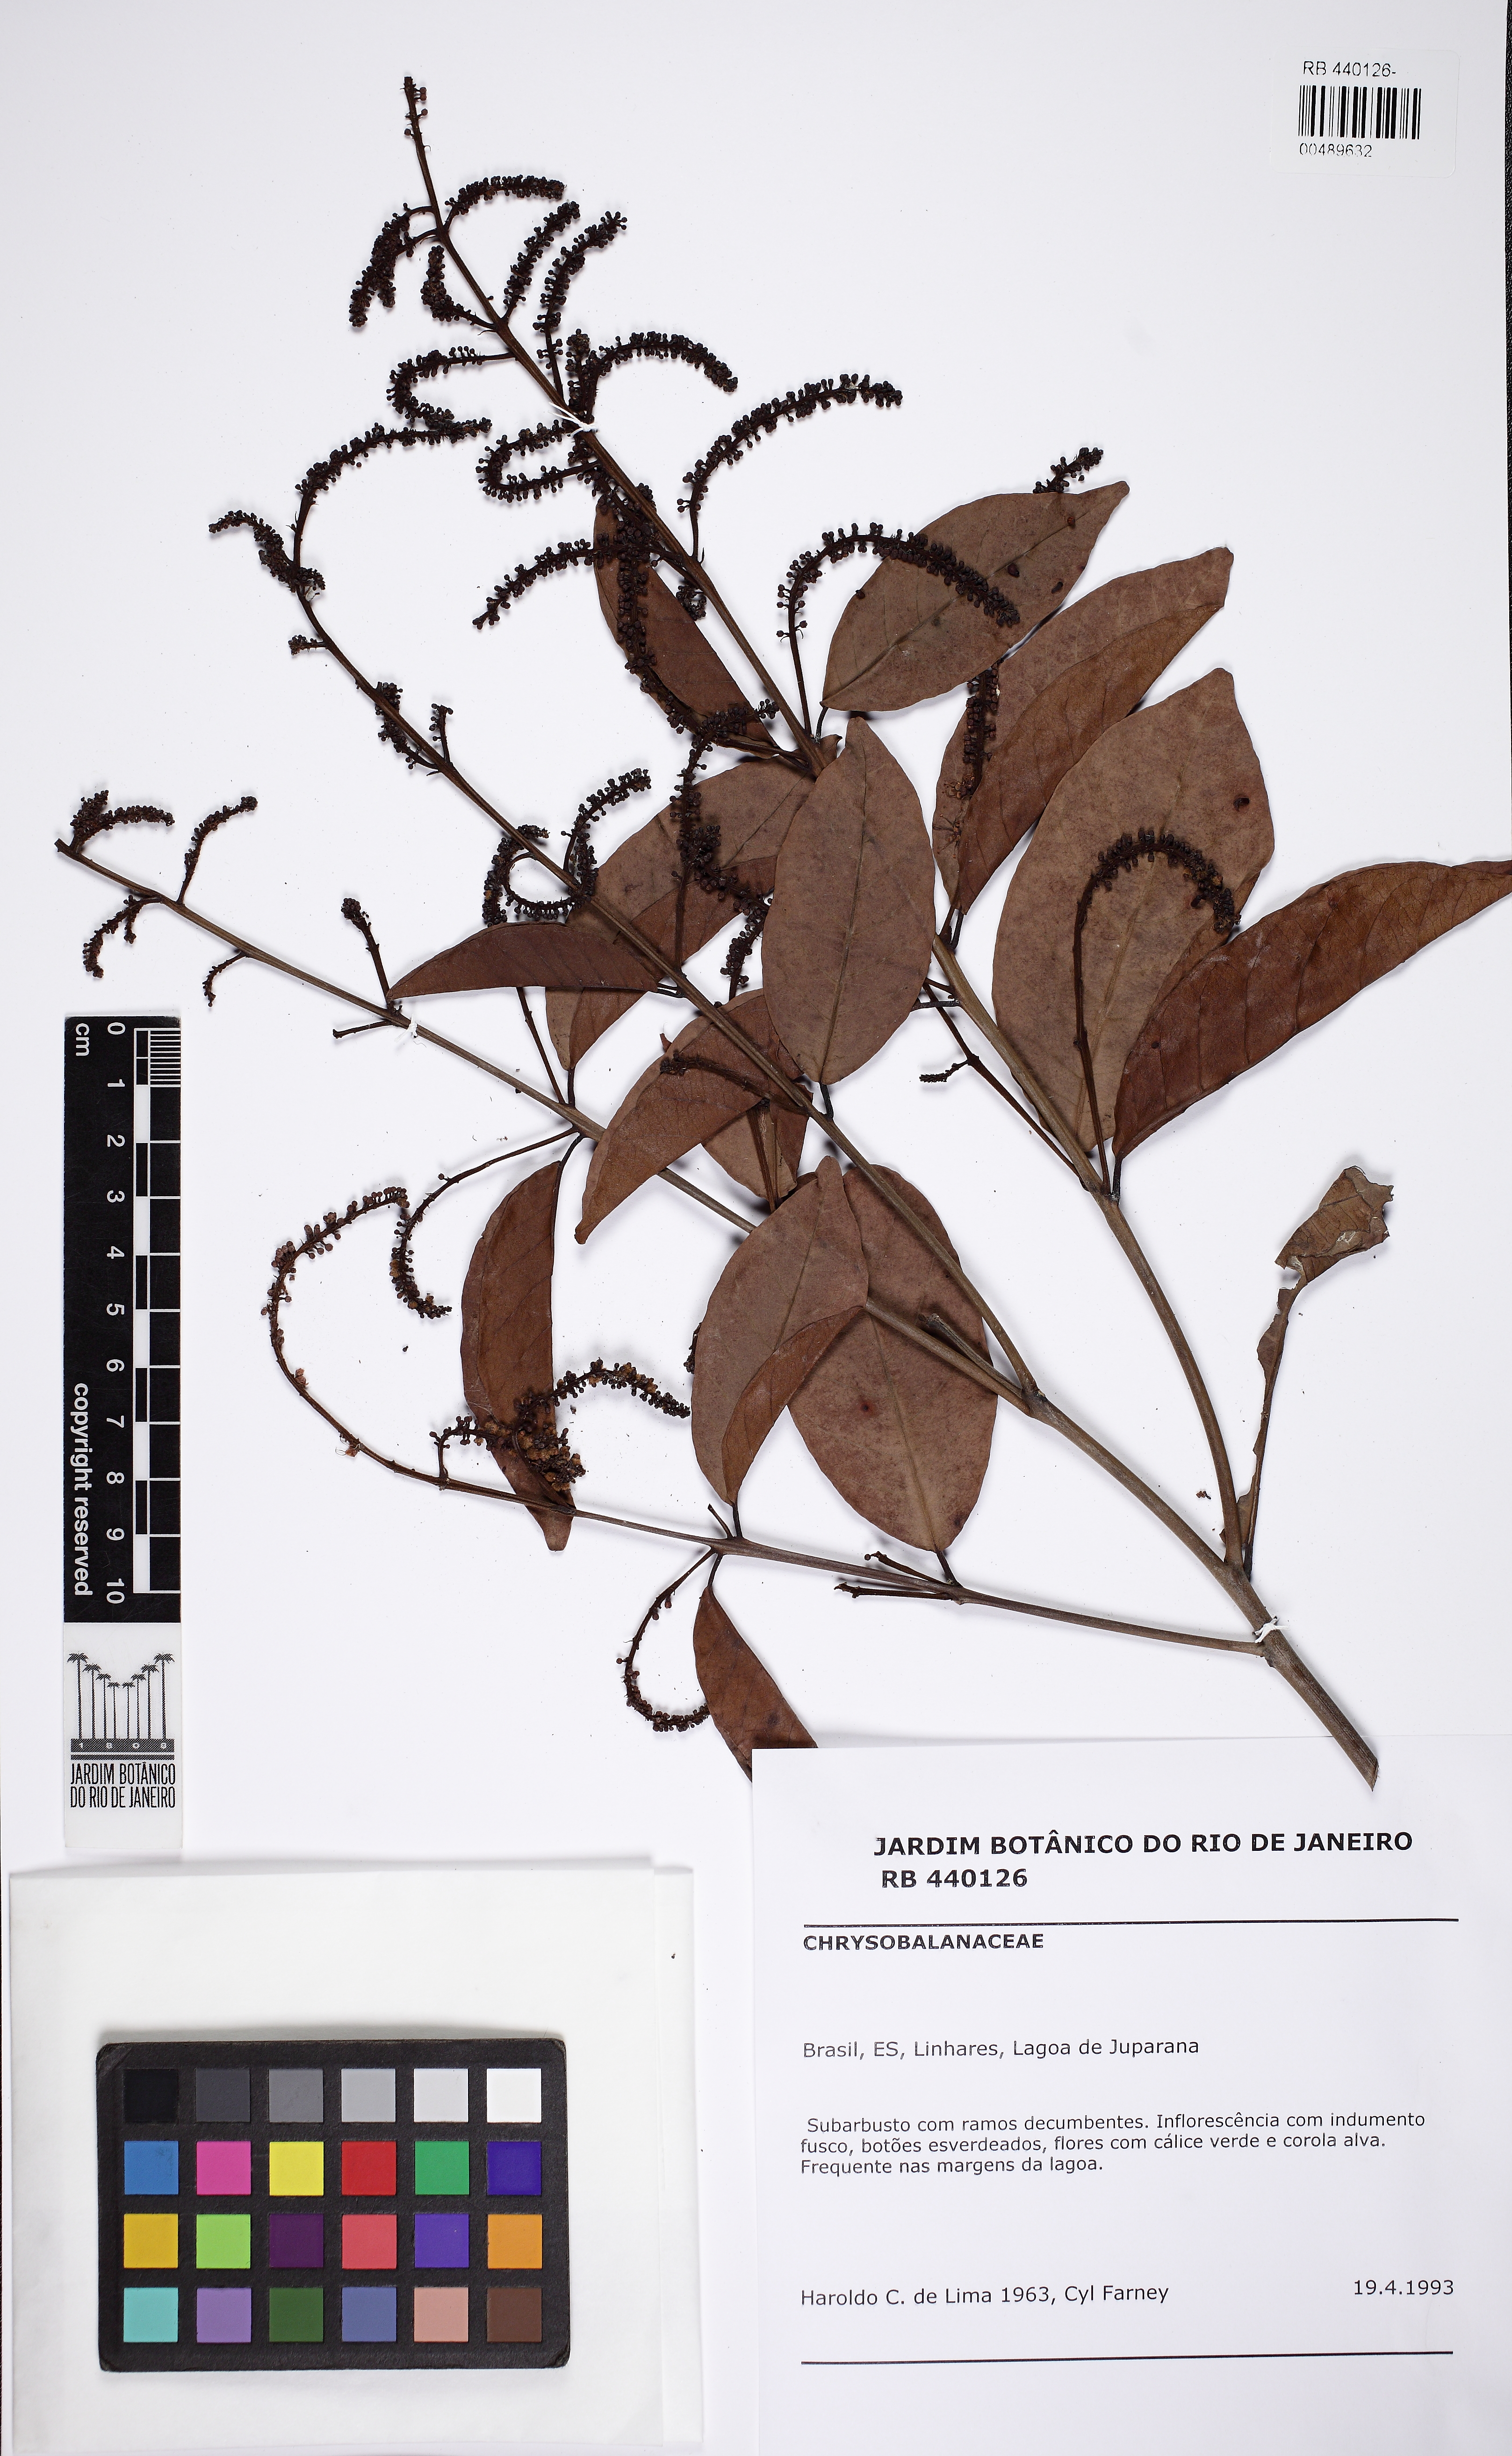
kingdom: Plantae
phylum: Tracheophyta
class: Magnoliopsida
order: Myrtales
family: Combretaceae
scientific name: Combretaceae
